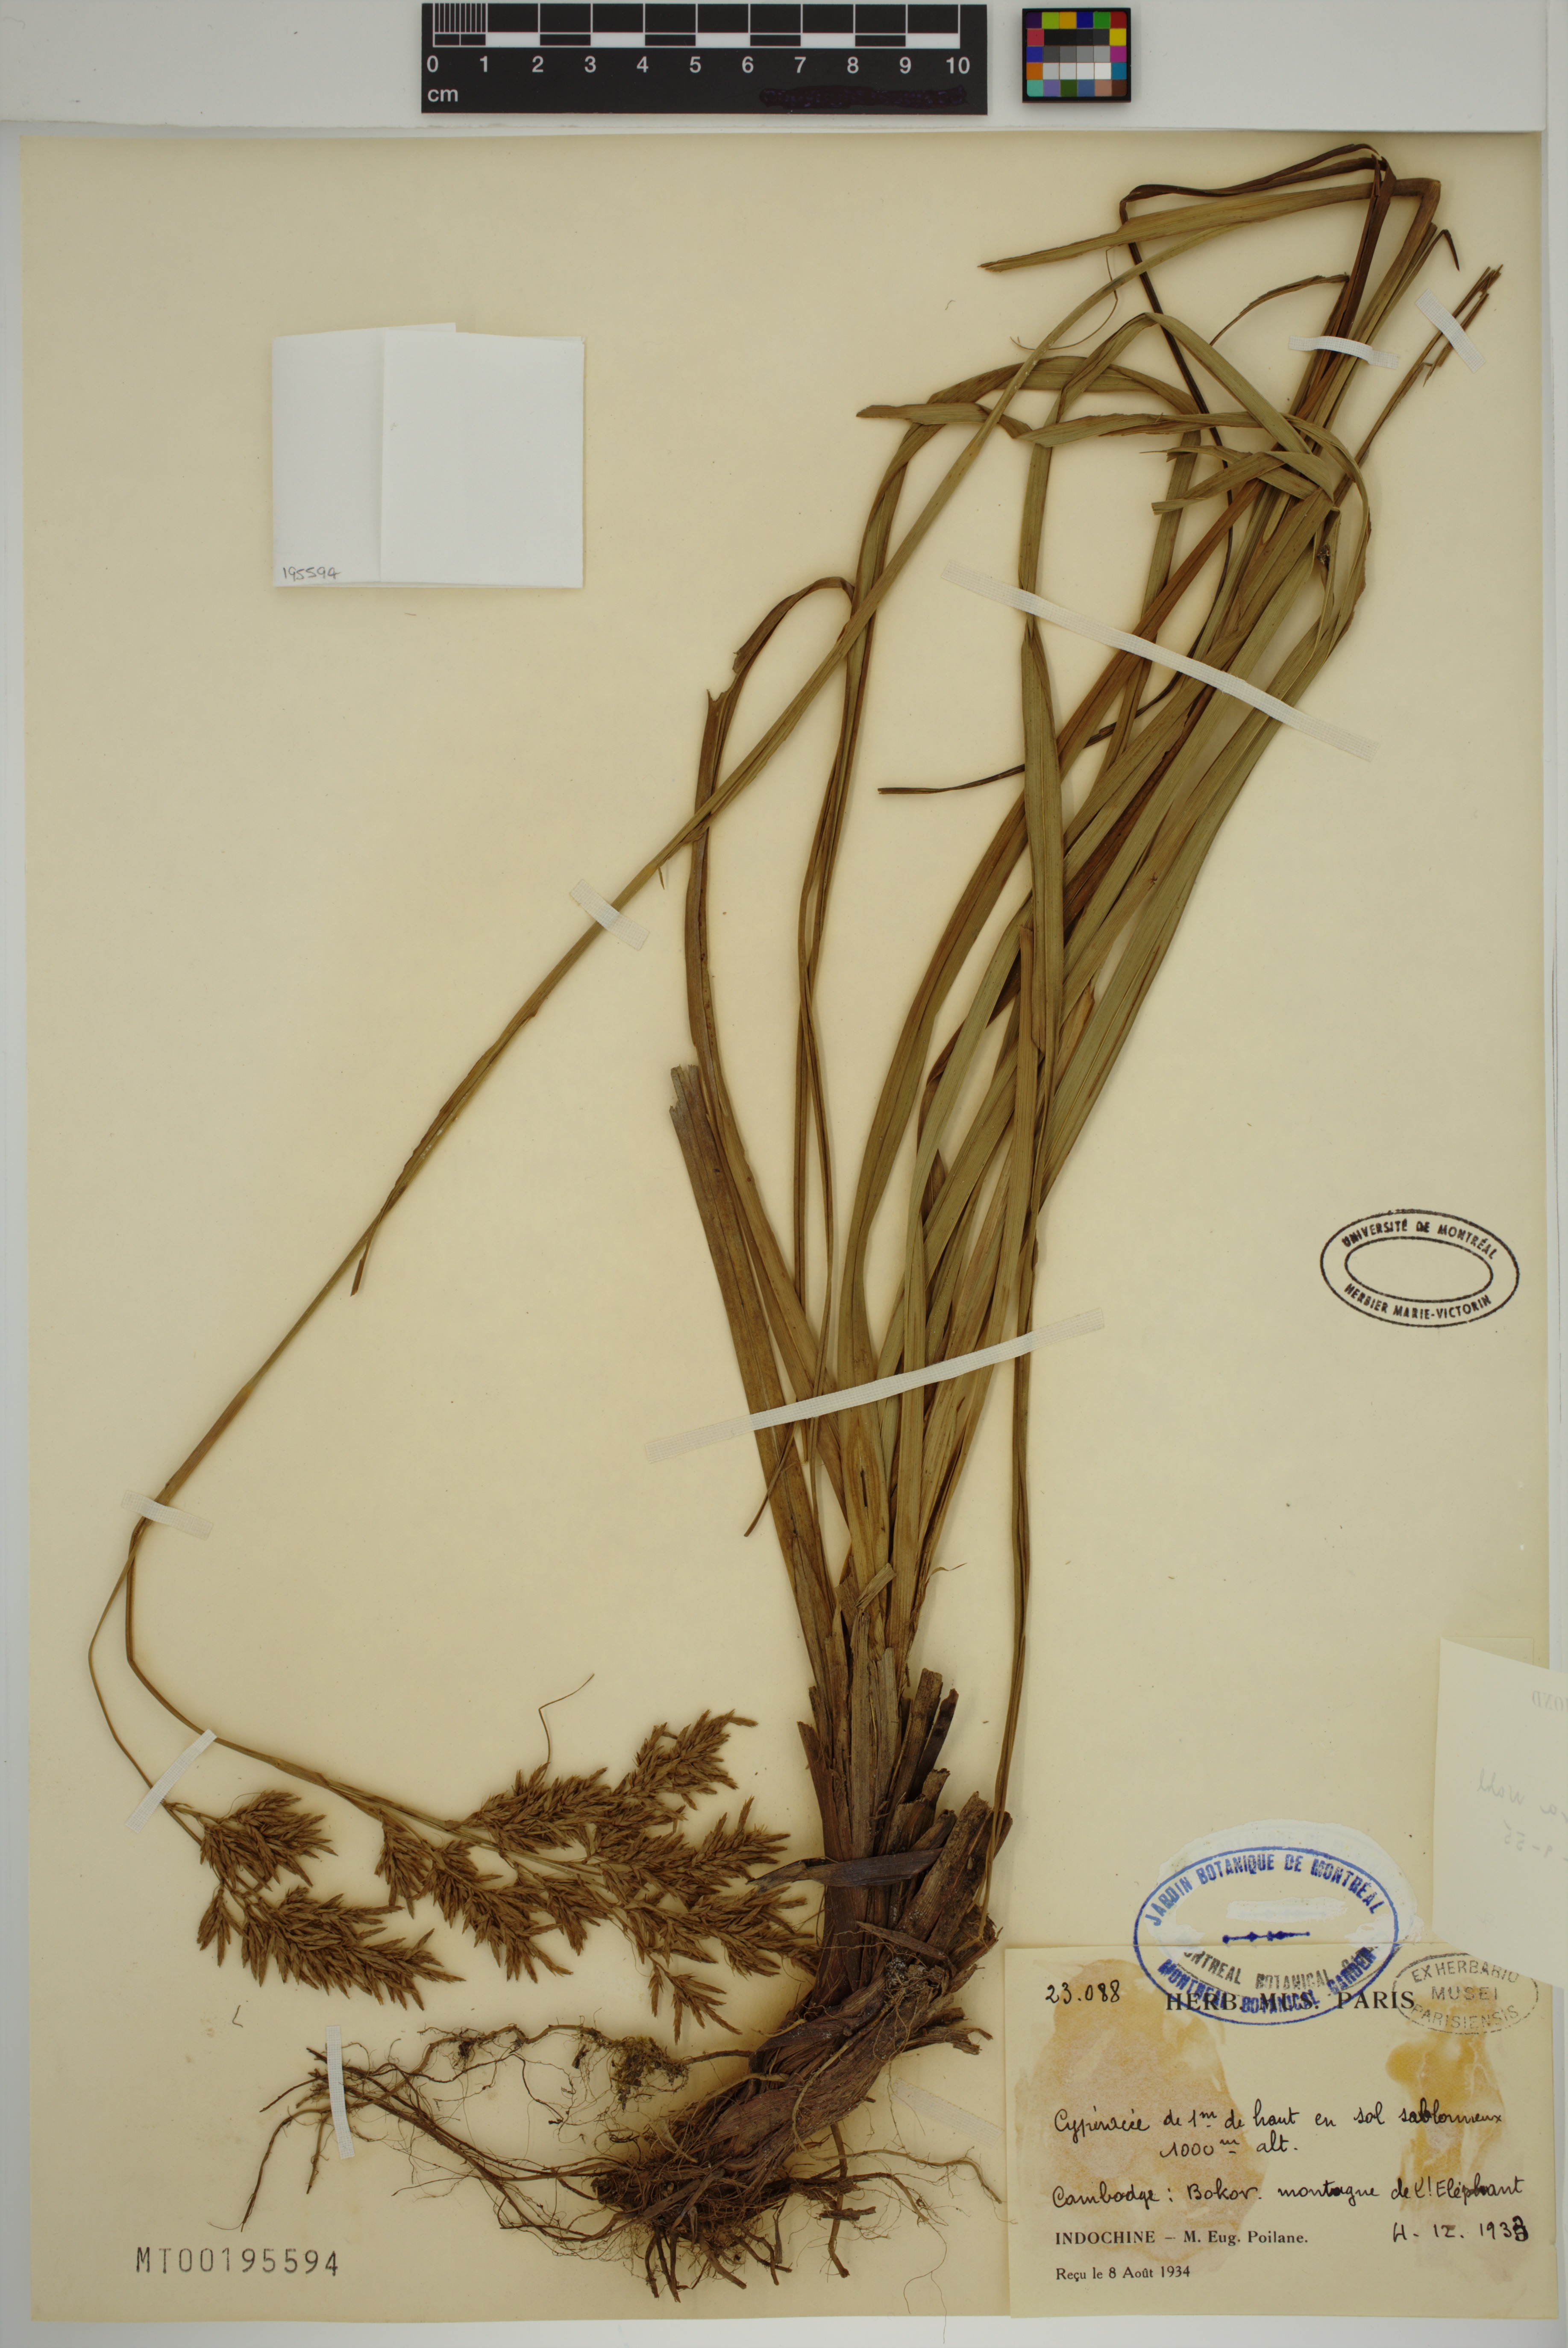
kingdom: Plantae
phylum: Tracheophyta
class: Liliopsida
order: Poales
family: Cyperaceae
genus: Carex
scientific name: Carex cruciata
